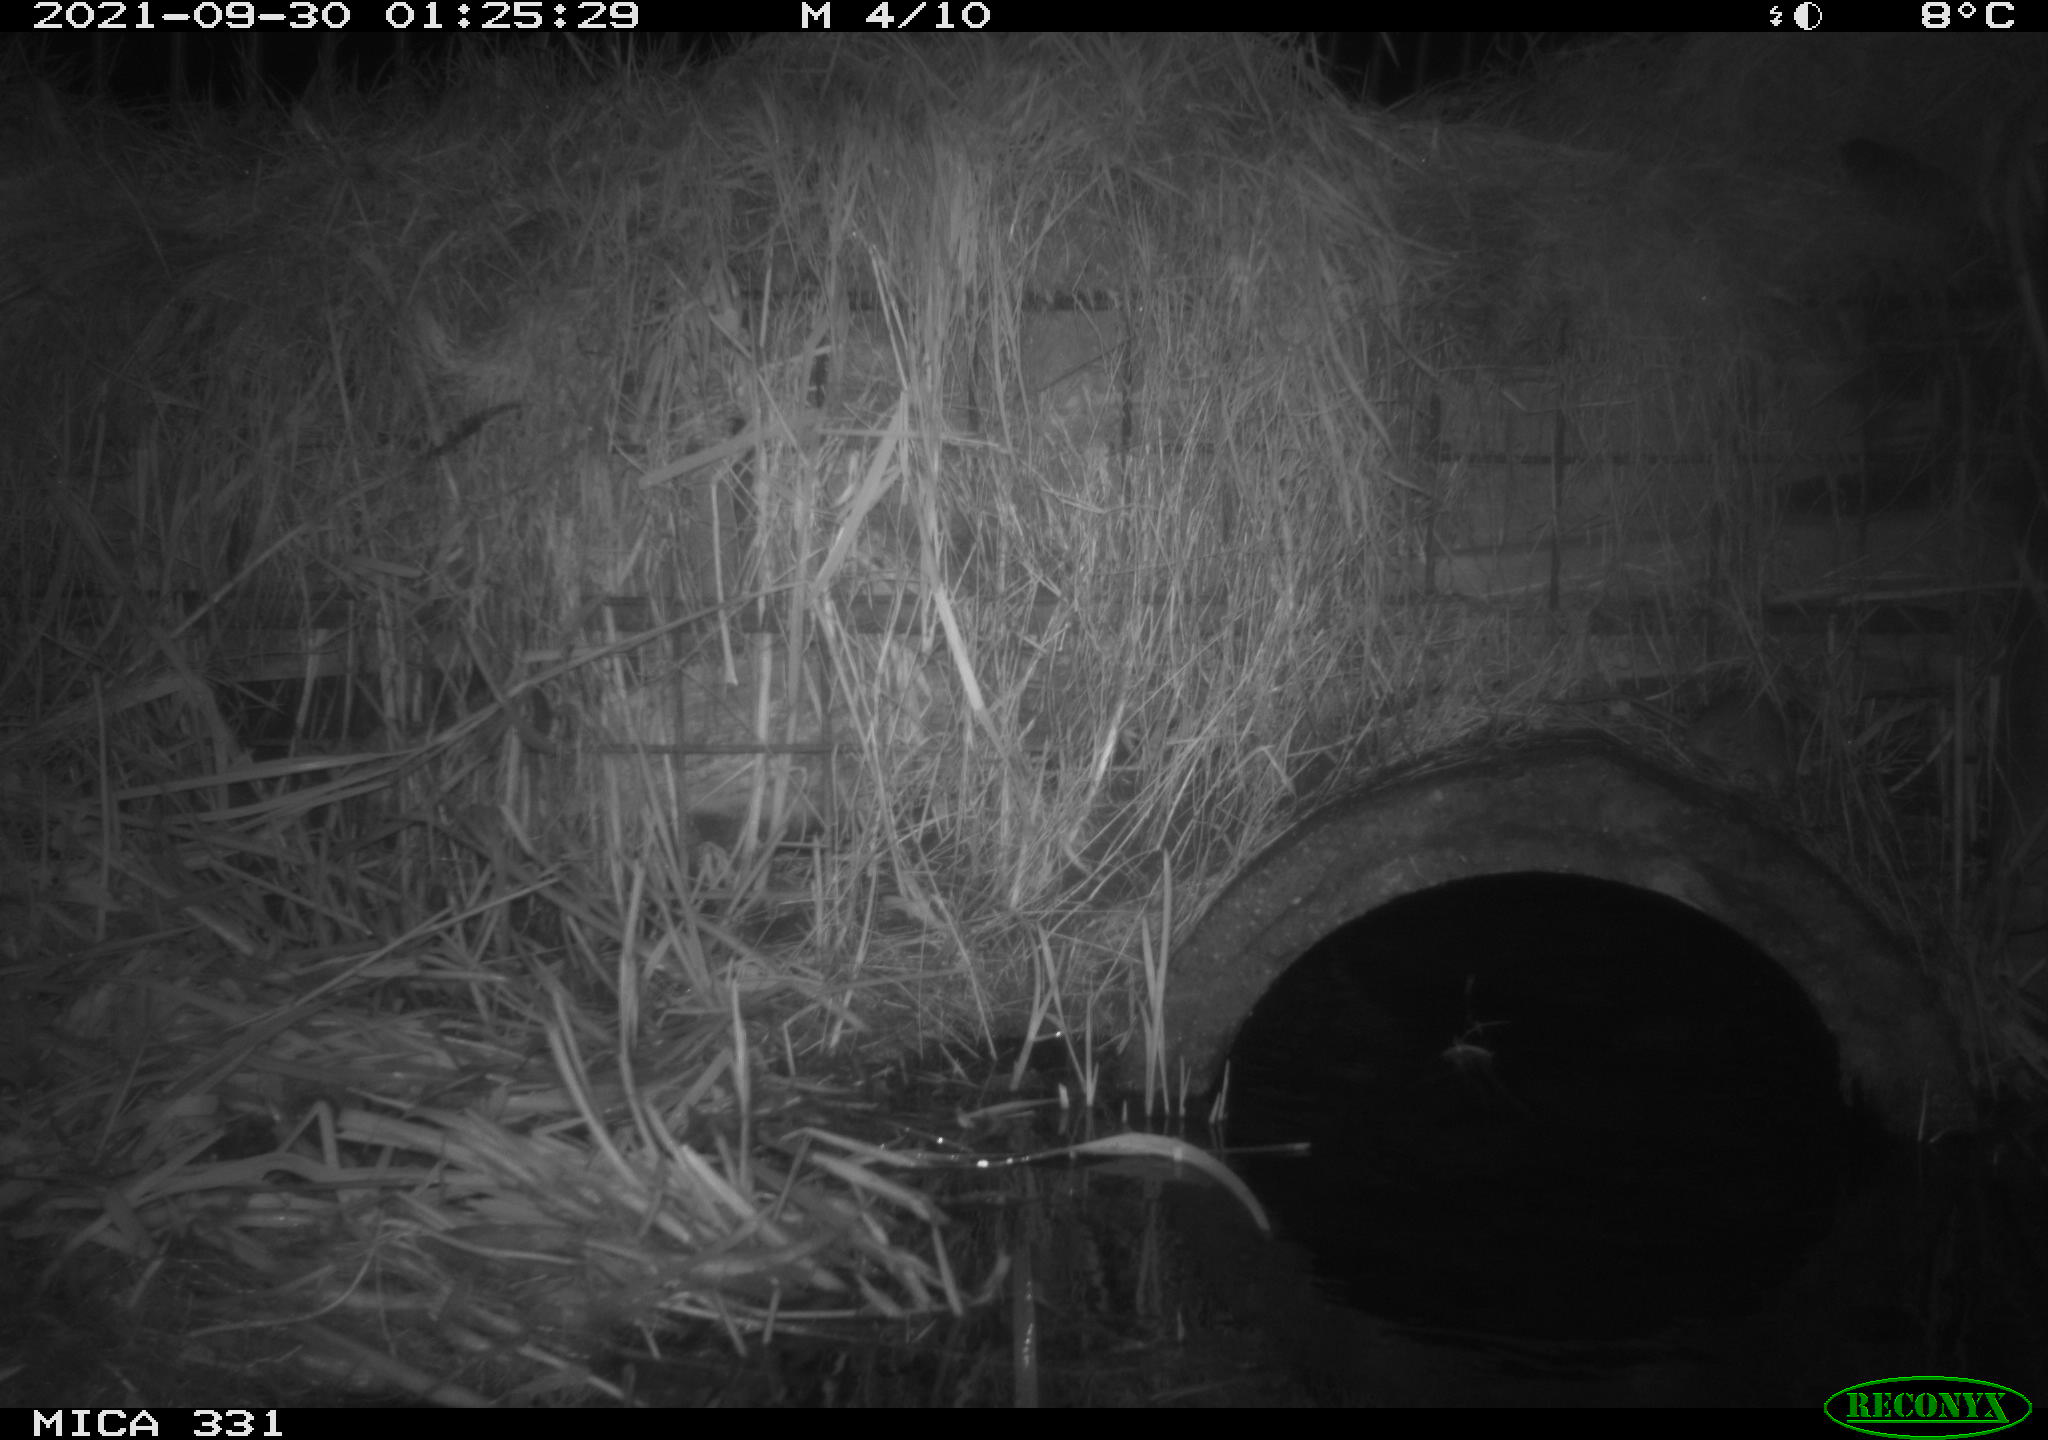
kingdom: Animalia
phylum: Chordata
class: Mammalia
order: Rodentia
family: Muridae
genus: Rattus
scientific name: Rattus norvegicus
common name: Brown rat
